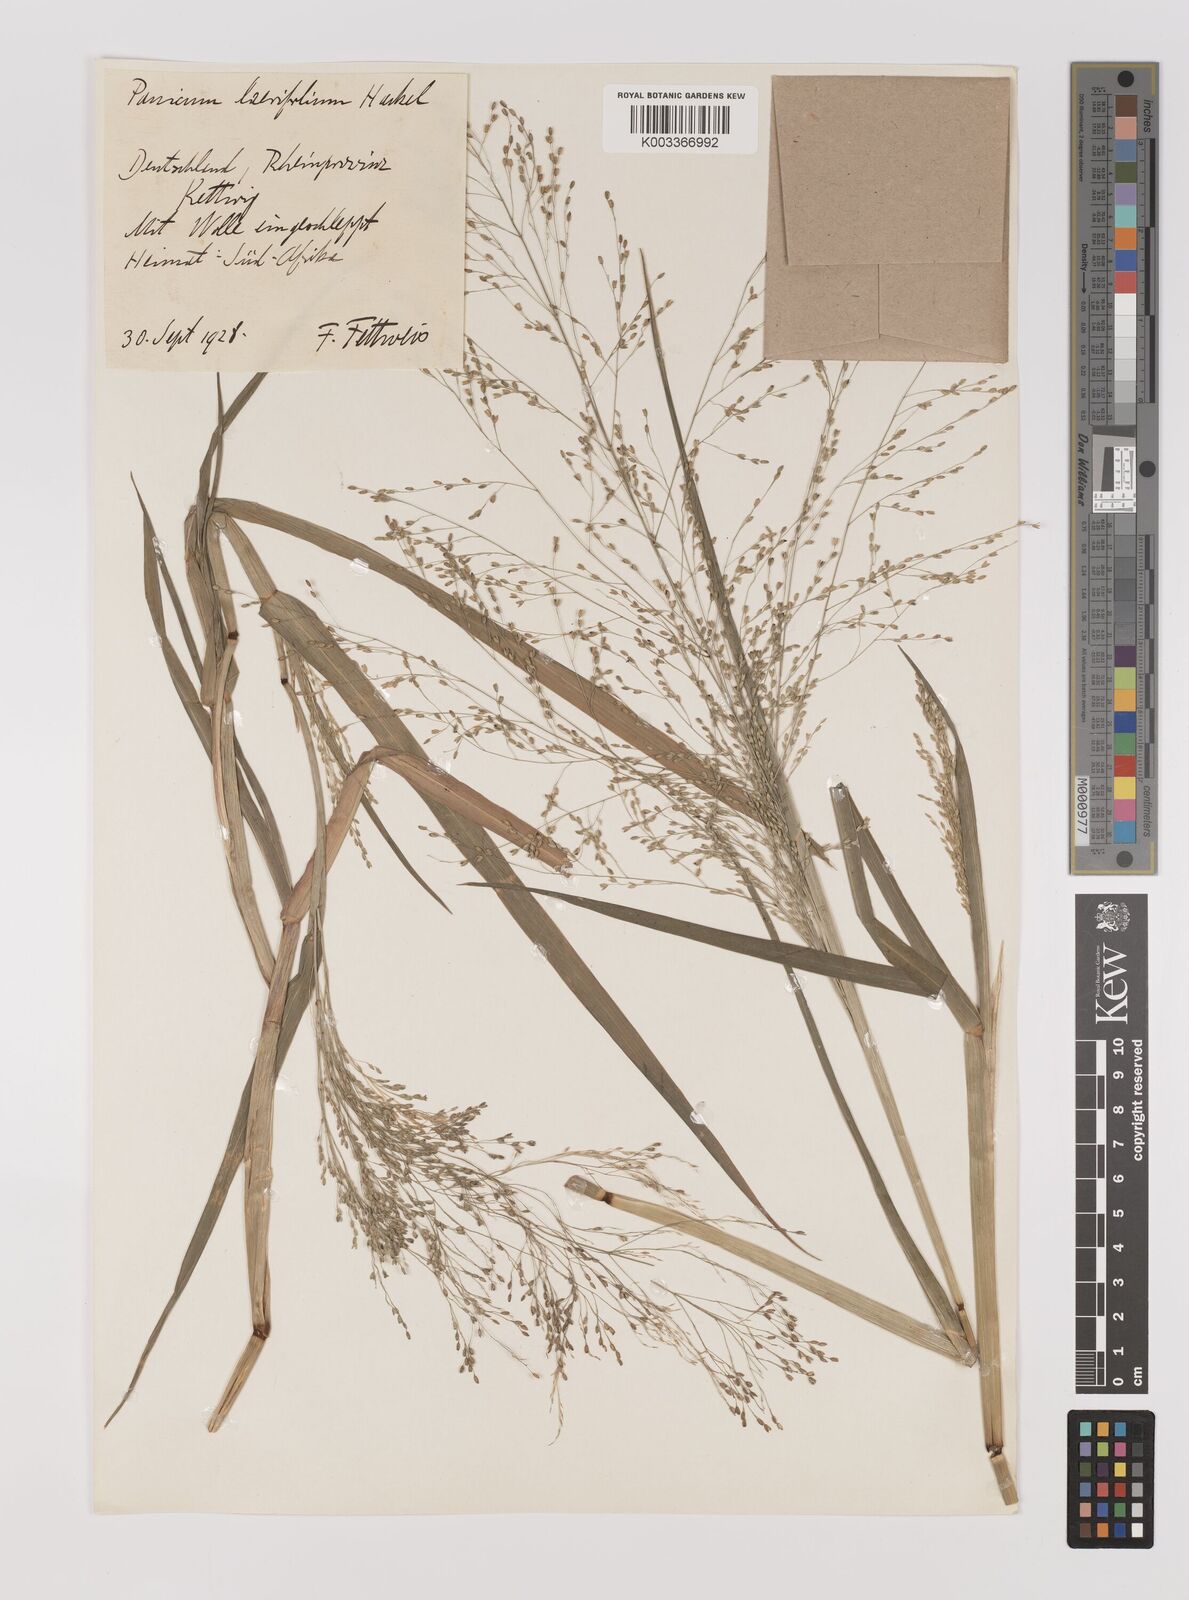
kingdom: Plantae
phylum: Tracheophyta
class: Liliopsida
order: Poales
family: Poaceae
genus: Panicum
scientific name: Panicum
